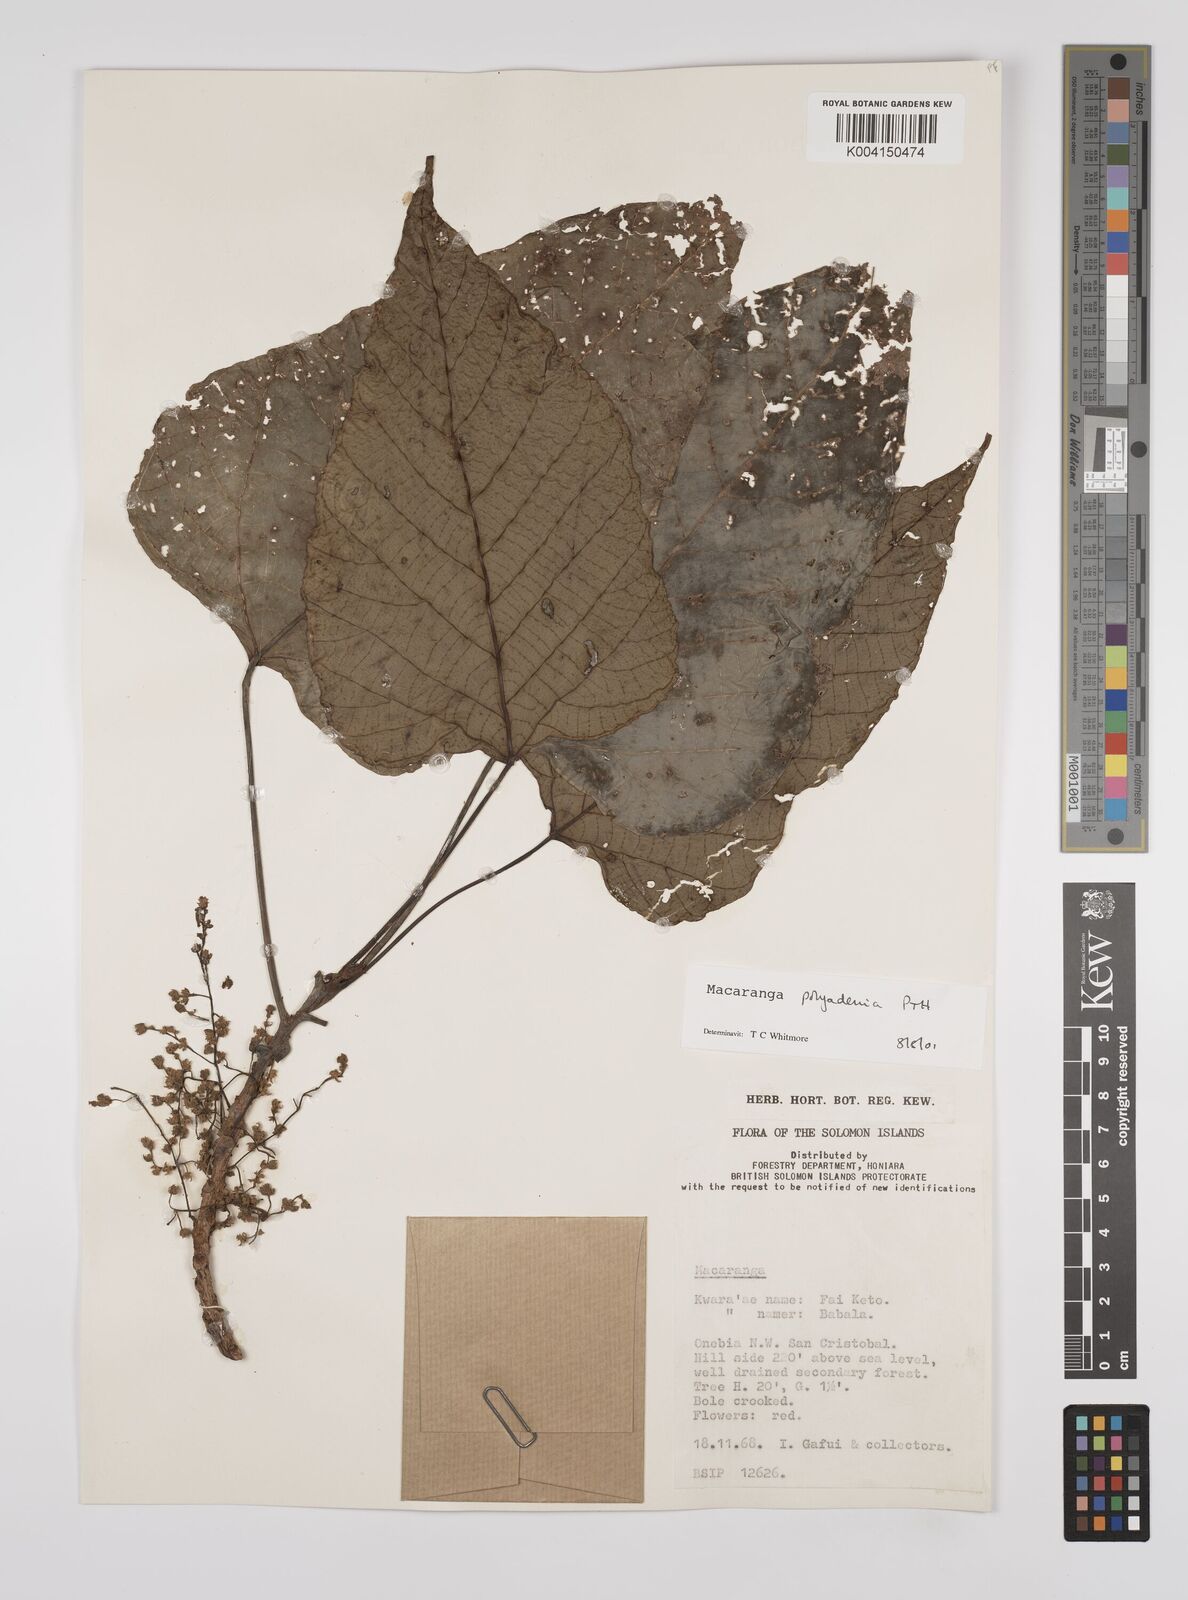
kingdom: Plantae
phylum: Tracheophyta
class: Magnoliopsida
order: Malpighiales
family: Euphorbiaceae
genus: Macaranga
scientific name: Macaranga polyadenia
